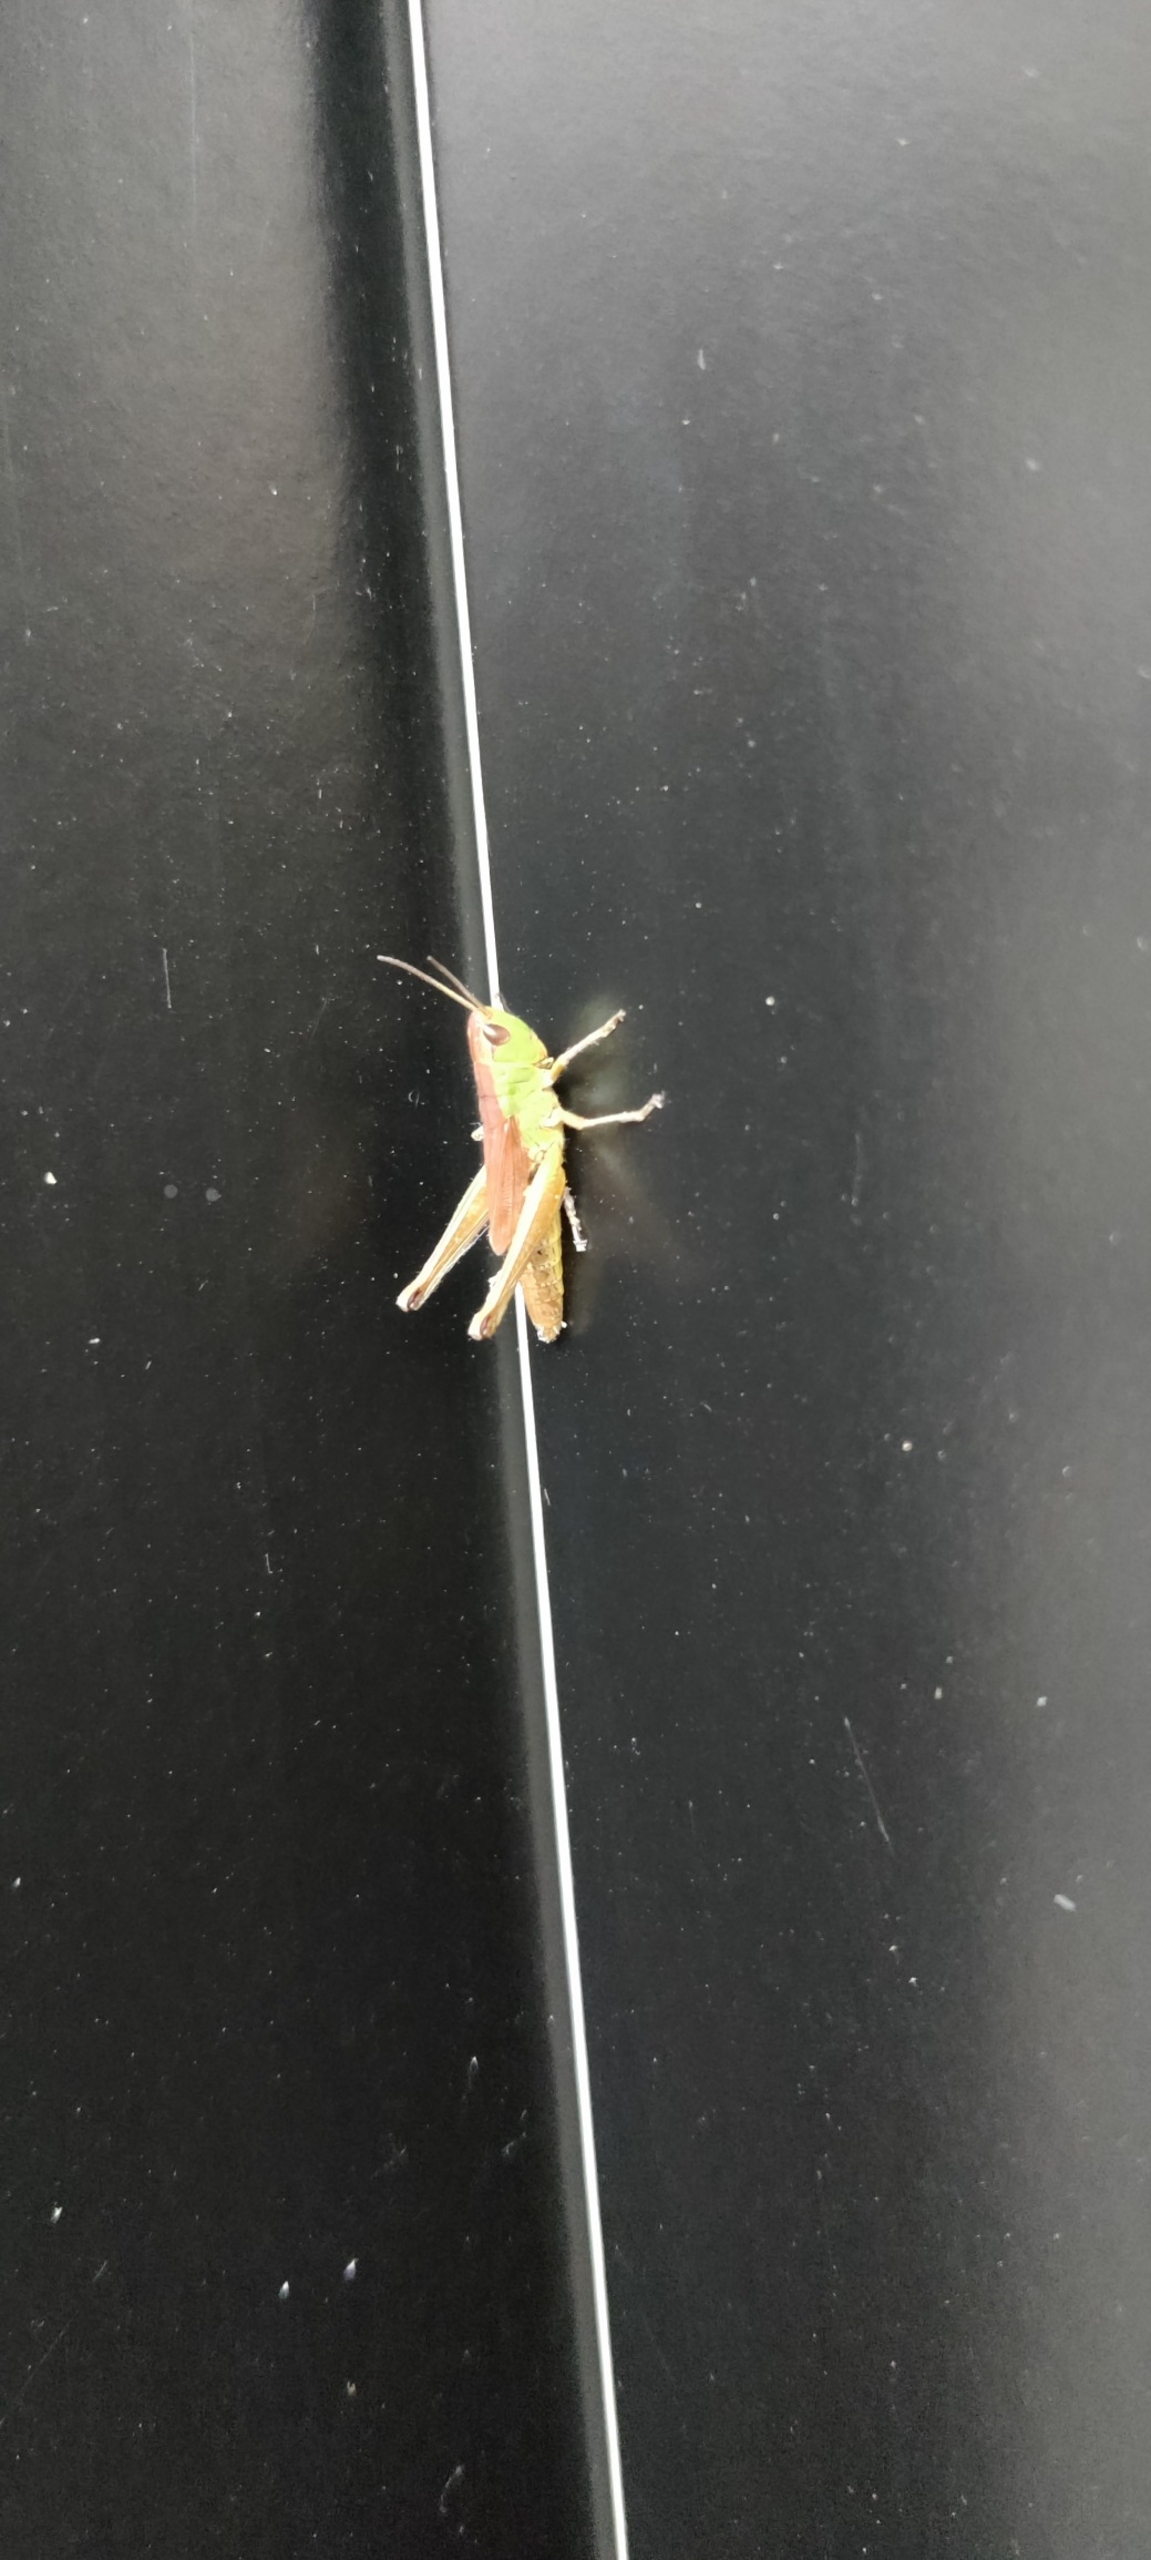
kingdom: Animalia
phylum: Arthropoda
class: Insecta
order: Orthoptera
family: Acrididae
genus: Pseudochorthippus
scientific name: Pseudochorthippus parallelus
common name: Enggræshoppe
